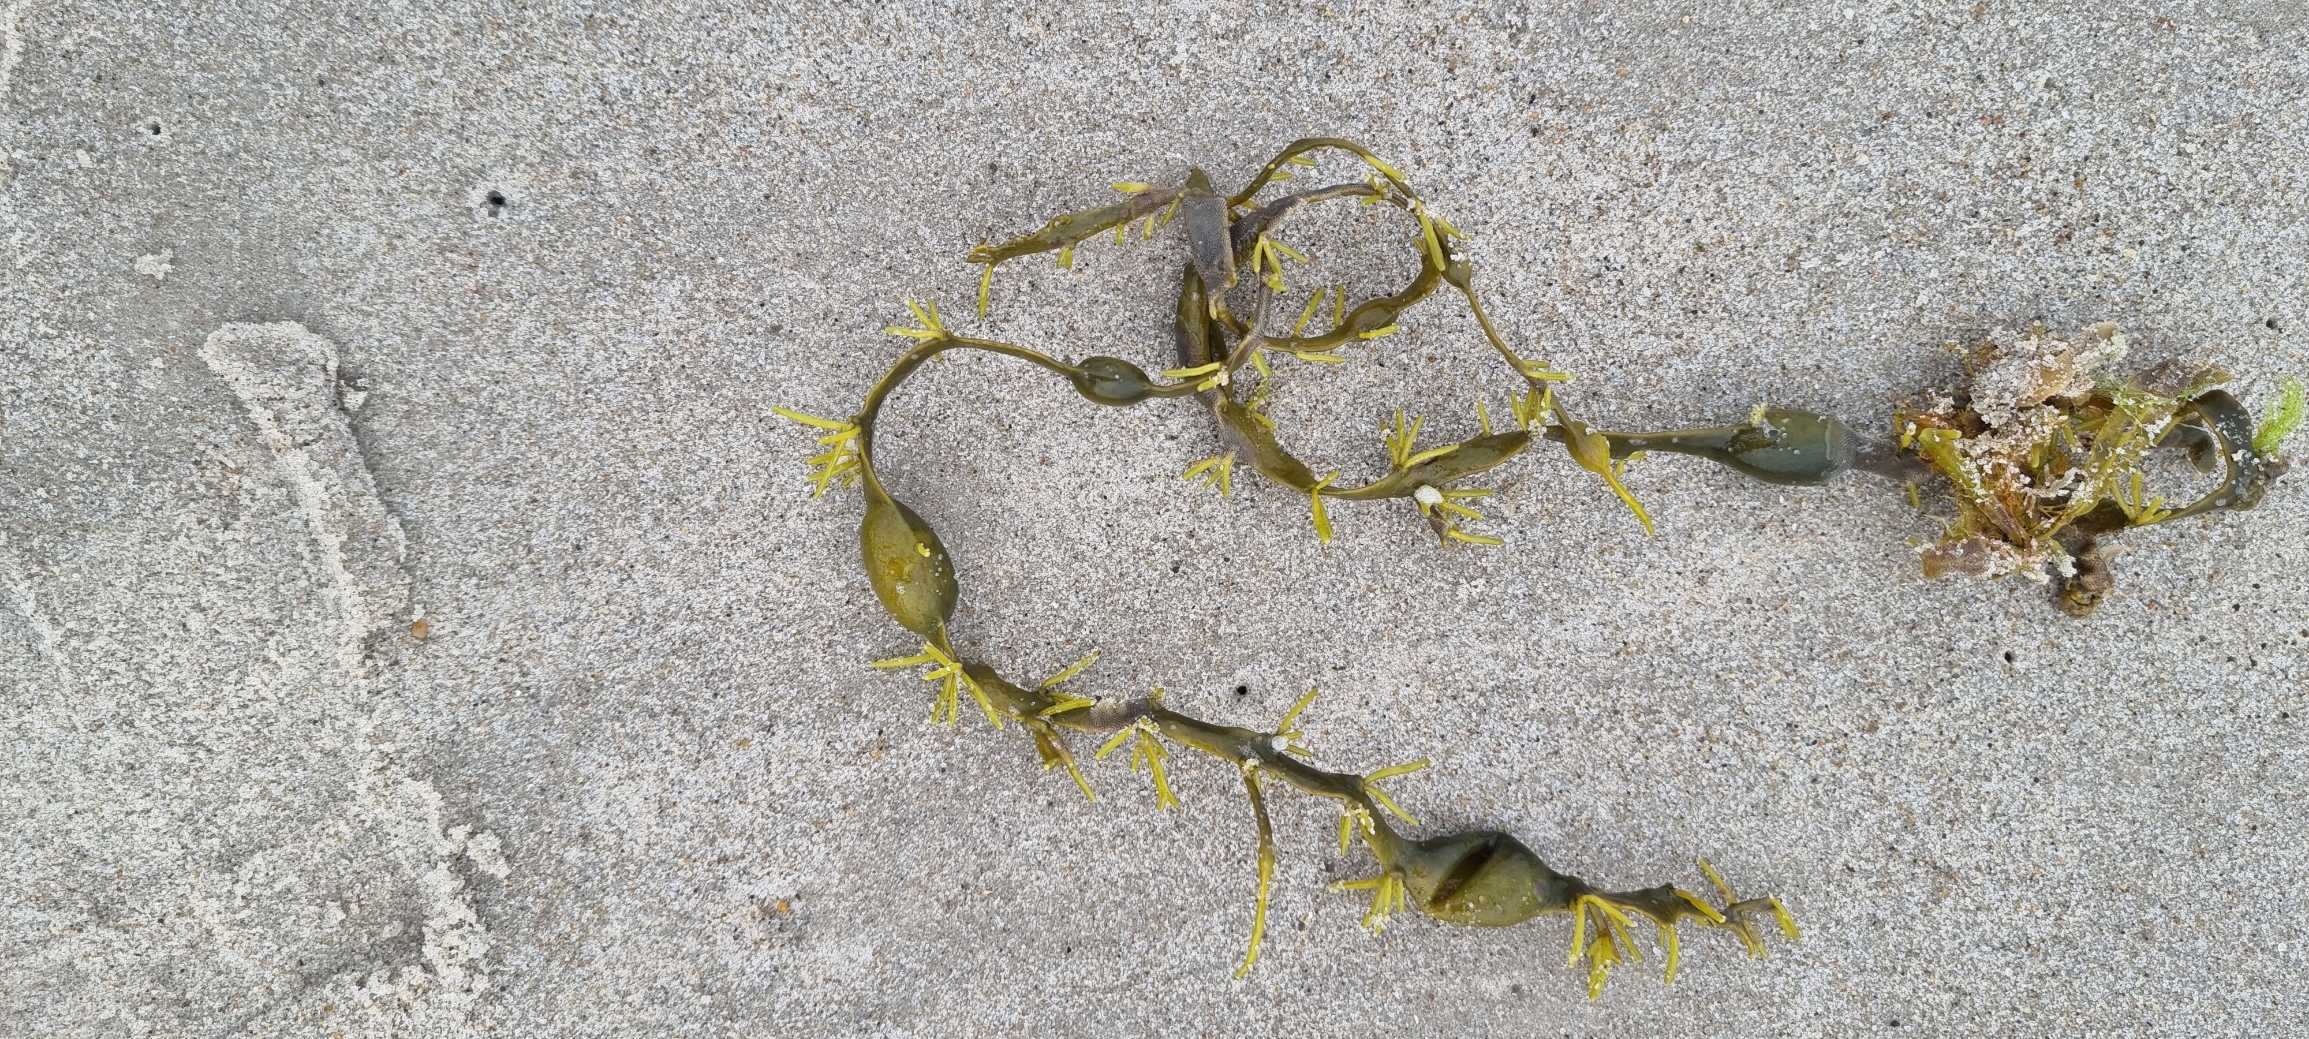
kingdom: Chromista
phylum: Ochrophyta
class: Phaeophyceae
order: Fucales
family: Fucaceae
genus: Ascophyllum
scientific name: Ascophyllum nodosum
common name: Buletang
